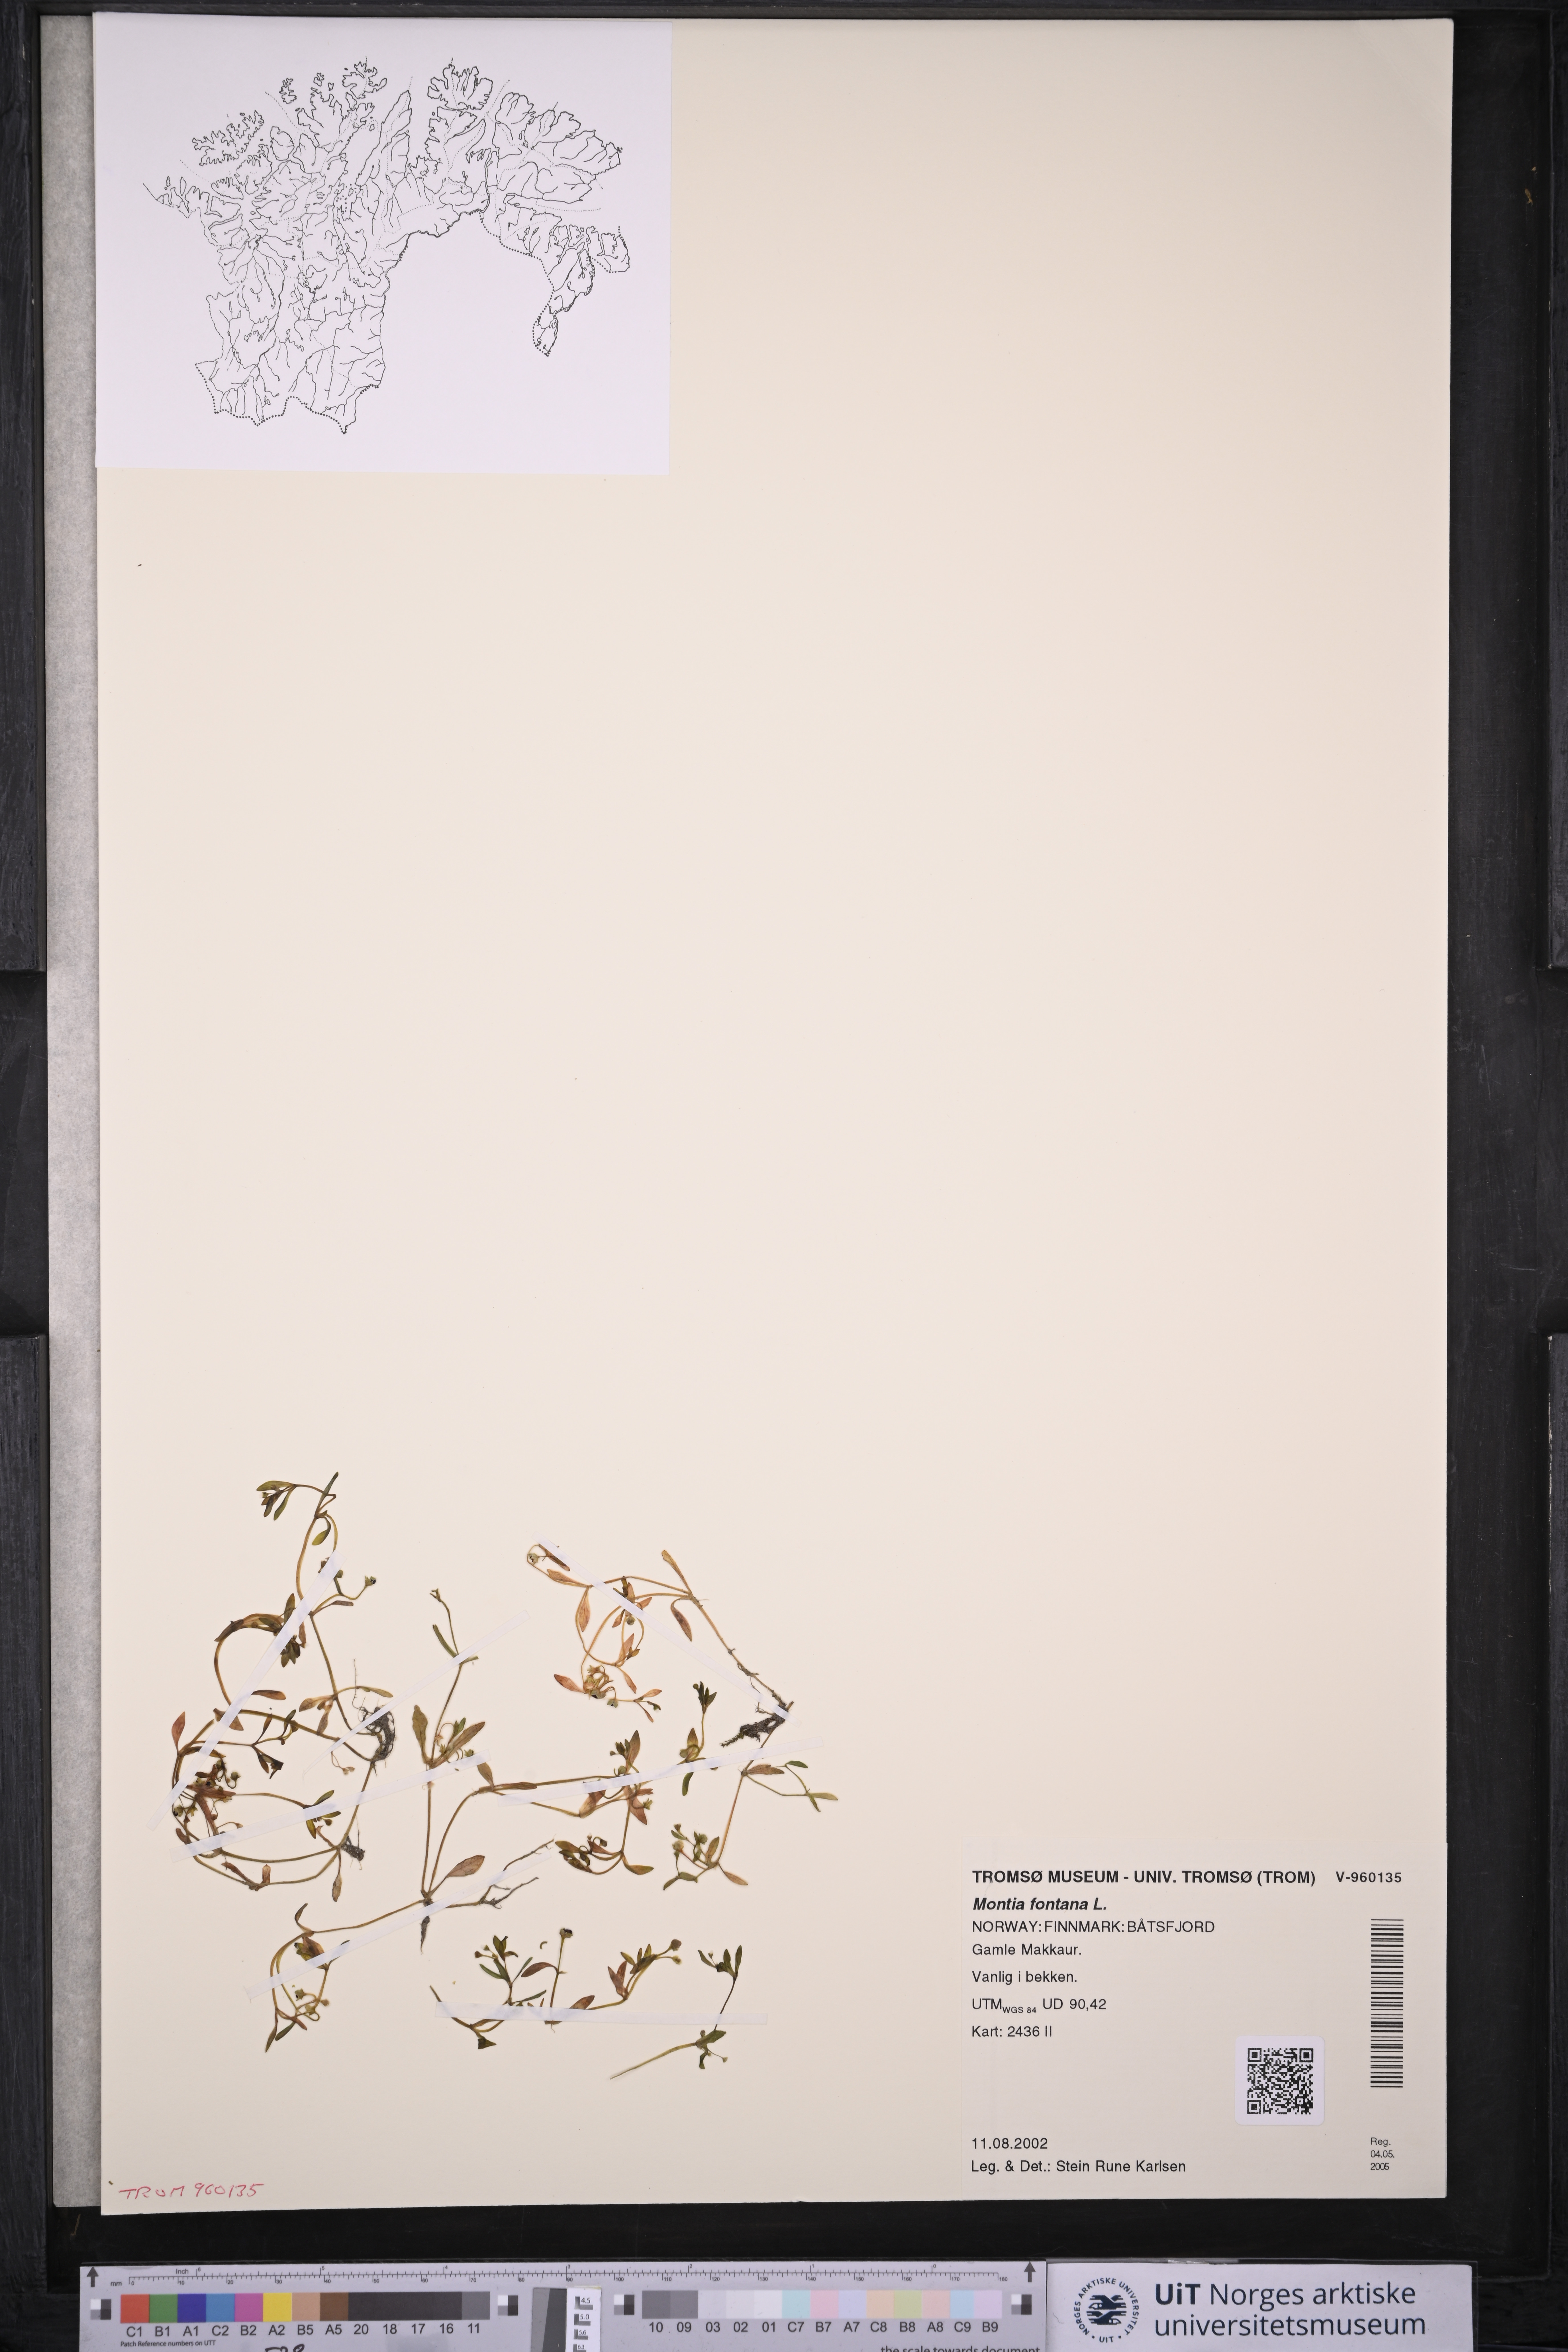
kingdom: Plantae
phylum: Tracheophyta
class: Magnoliopsida
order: Caryophyllales
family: Montiaceae
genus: Montia
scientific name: Montia fontana
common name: Blinks
